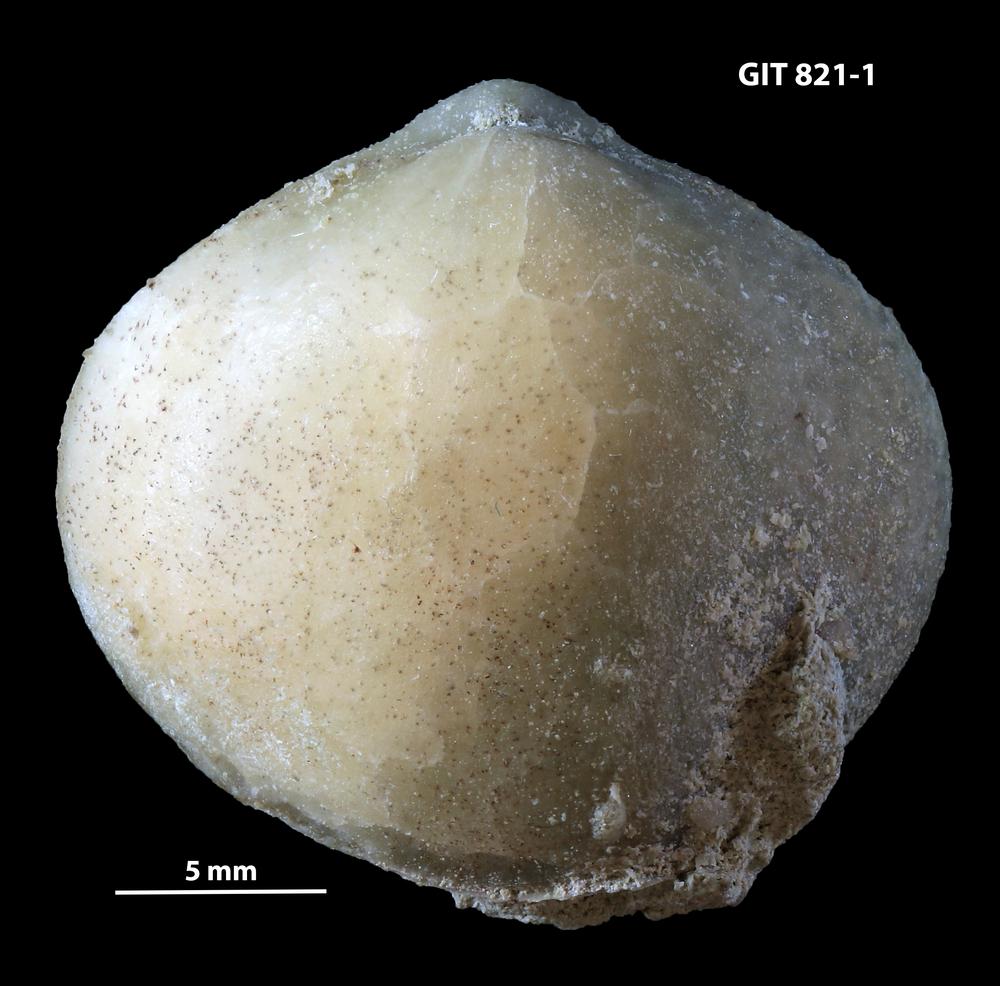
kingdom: Animalia
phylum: Brachiopoda
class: Rhynchonellata
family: Porambonitidae
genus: Porambonites
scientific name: Porambonites planus
